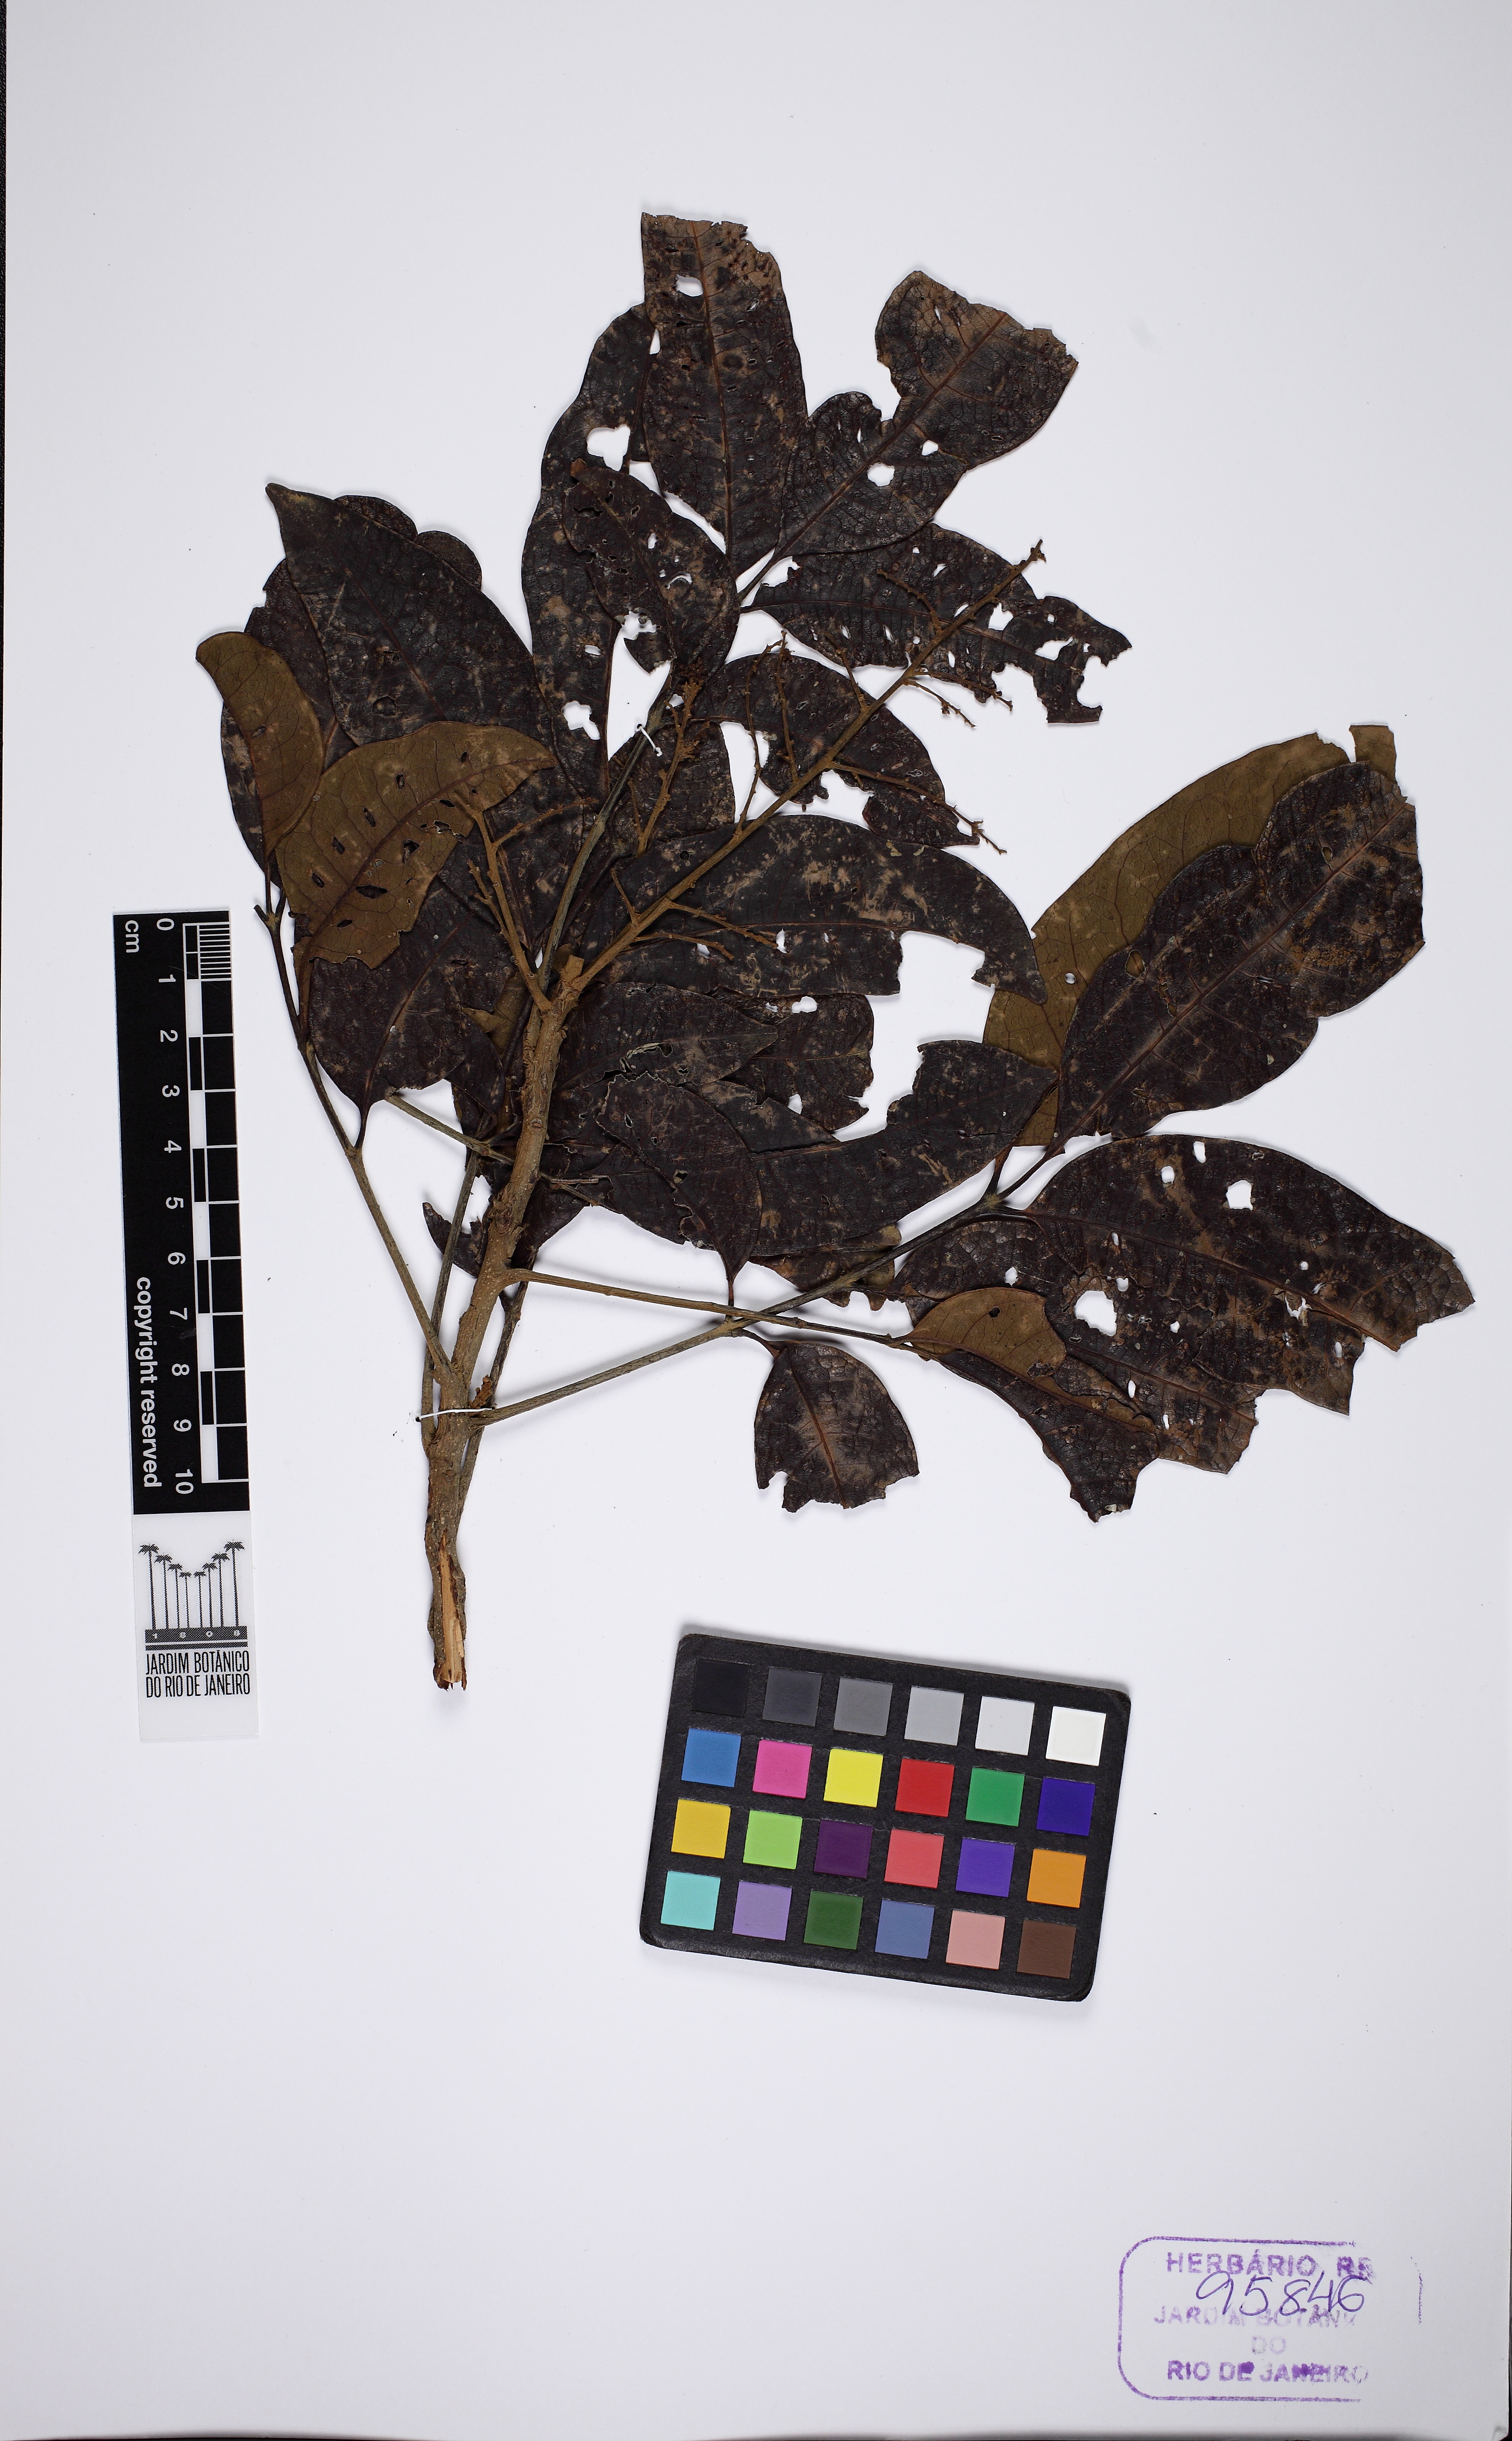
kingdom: Plantae
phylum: Tracheophyta
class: Magnoliopsida
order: Sapindales
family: Anacardiaceae
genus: Tapirira
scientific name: Tapirira guianensis
